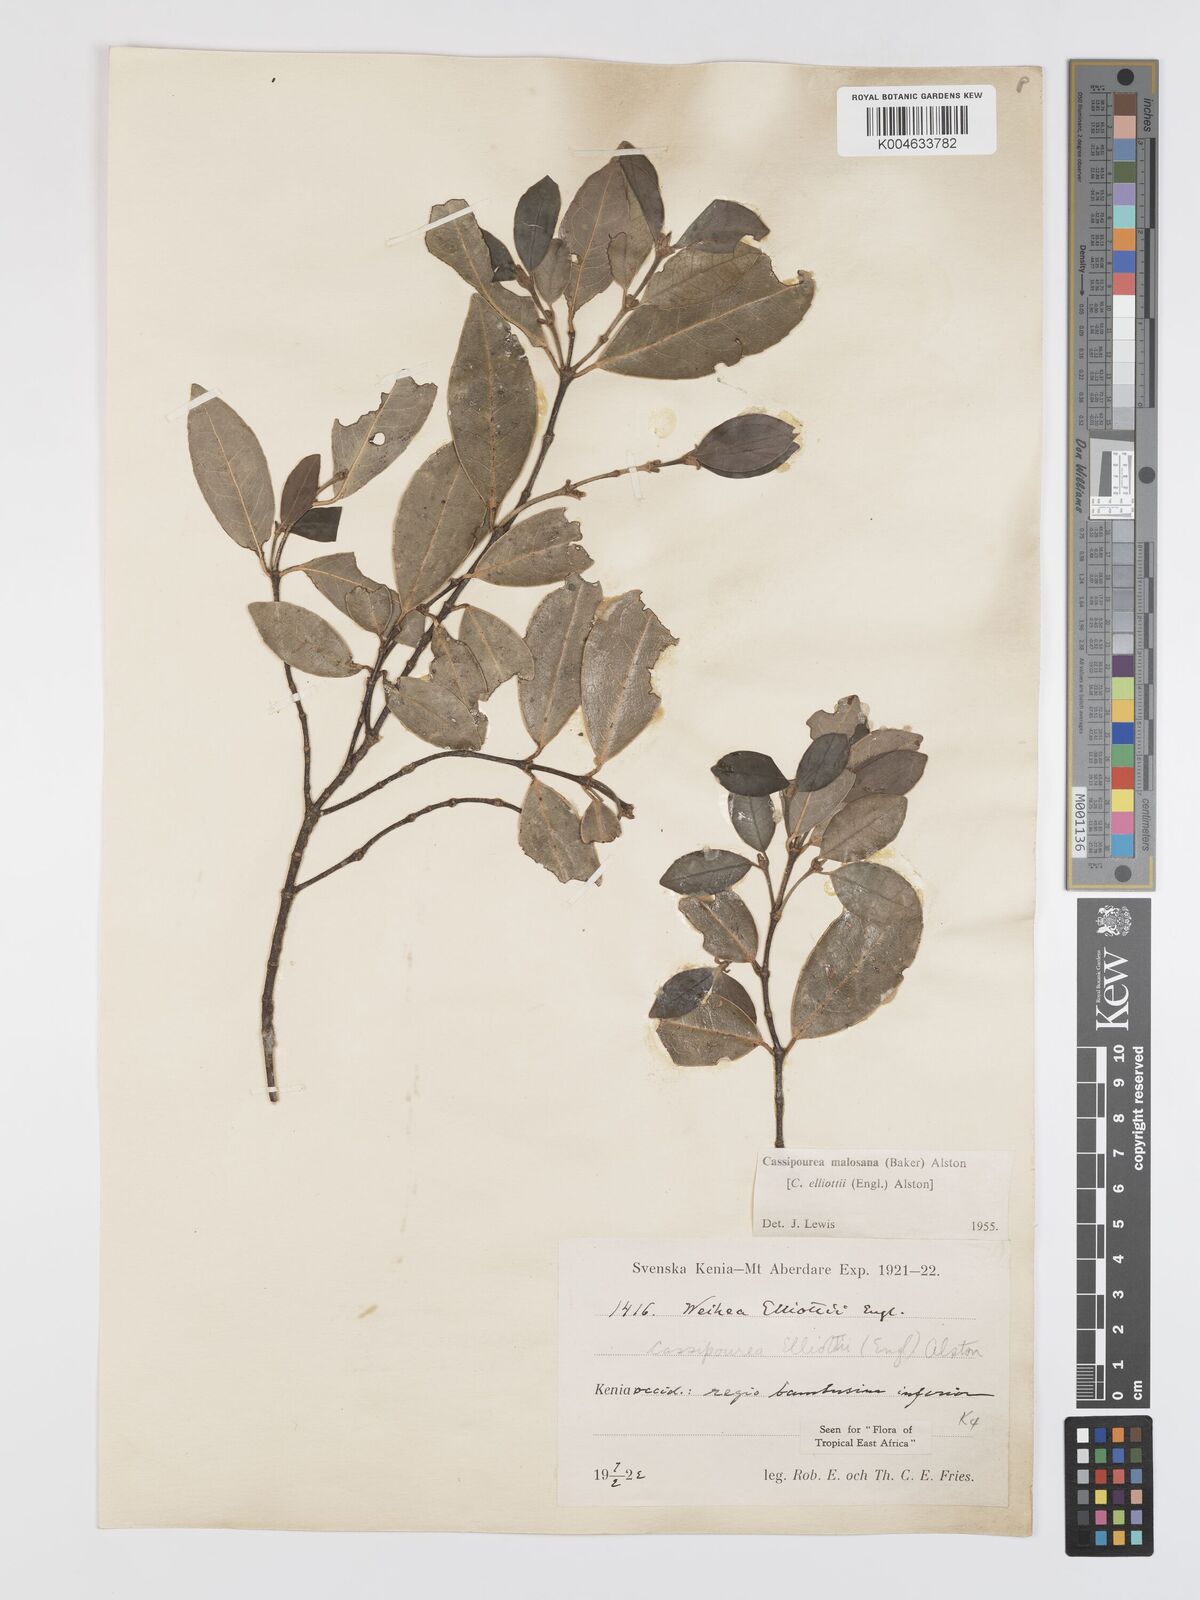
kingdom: Plantae
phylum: Tracheophyta
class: Magnoliopsida
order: Malpighiales
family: Rhizophoraceae
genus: Cassipourea
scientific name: Cassipourea malosana
